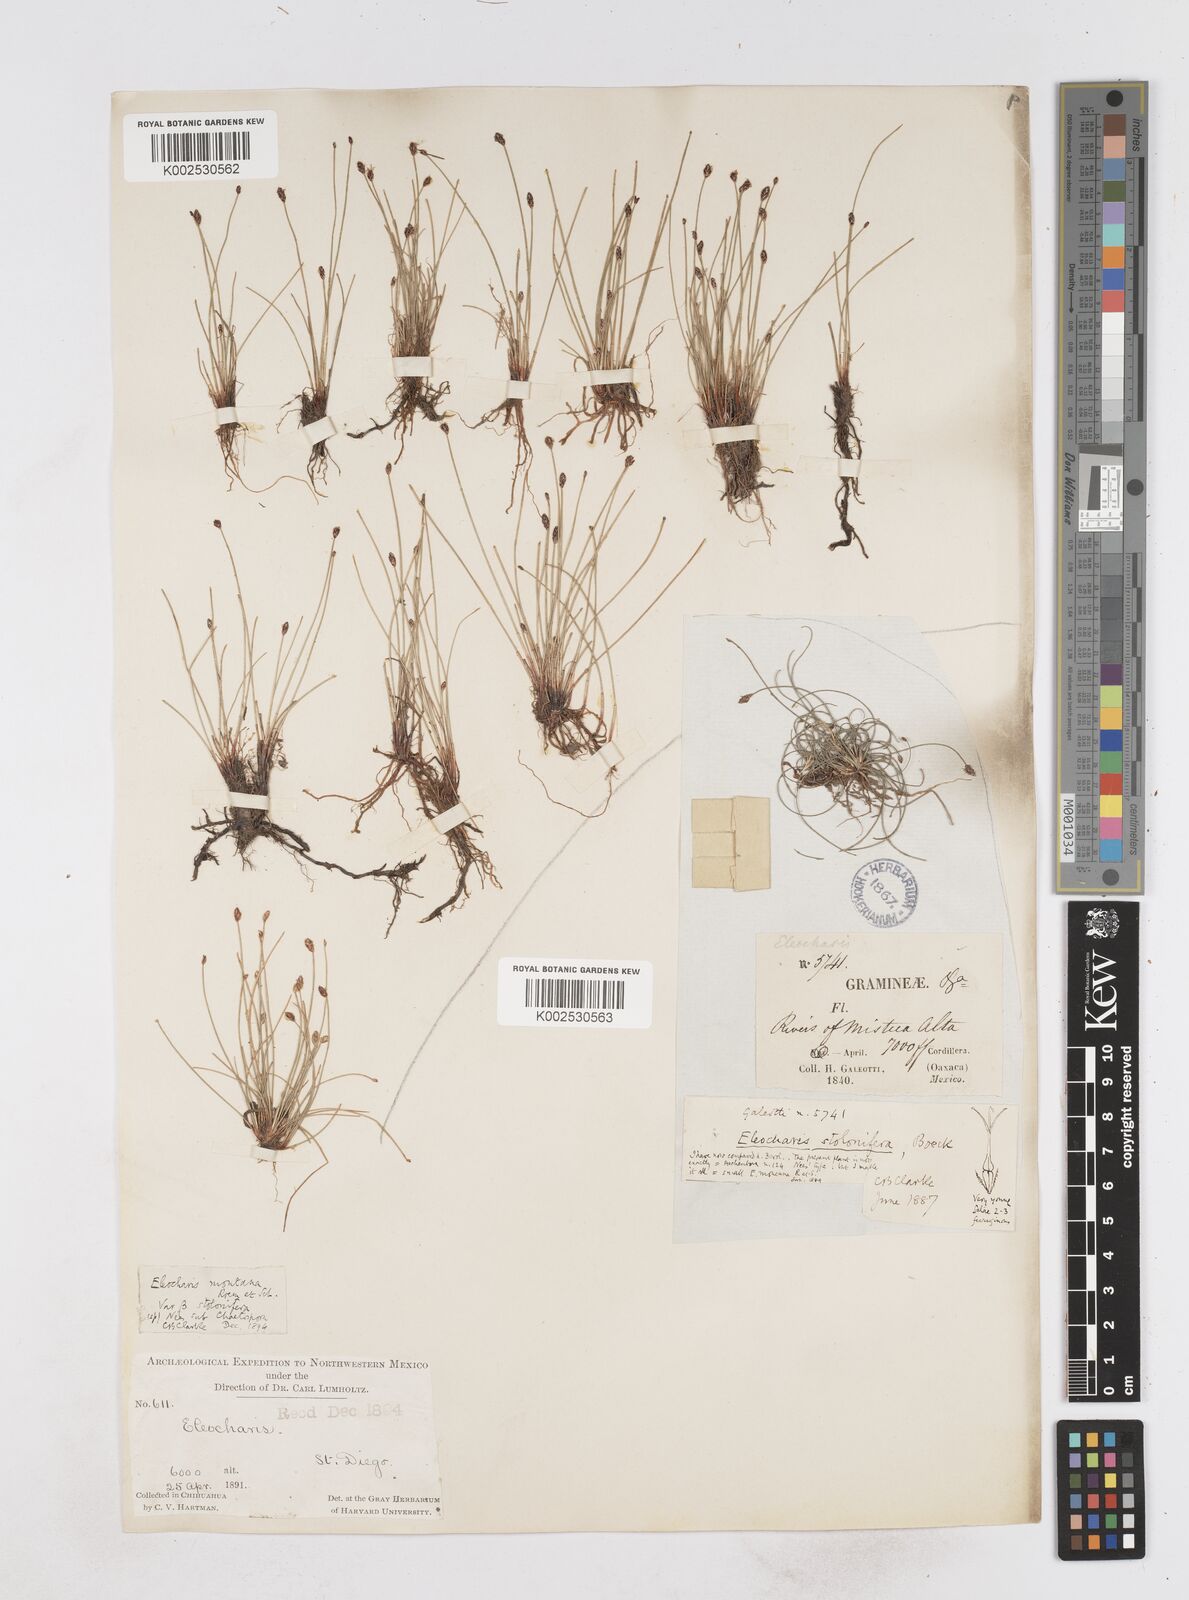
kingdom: Plantae
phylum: Tracheophyta
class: Liliopsida
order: Poales
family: Cyperaceae
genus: Eleocharis
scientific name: Eleocharis montana
